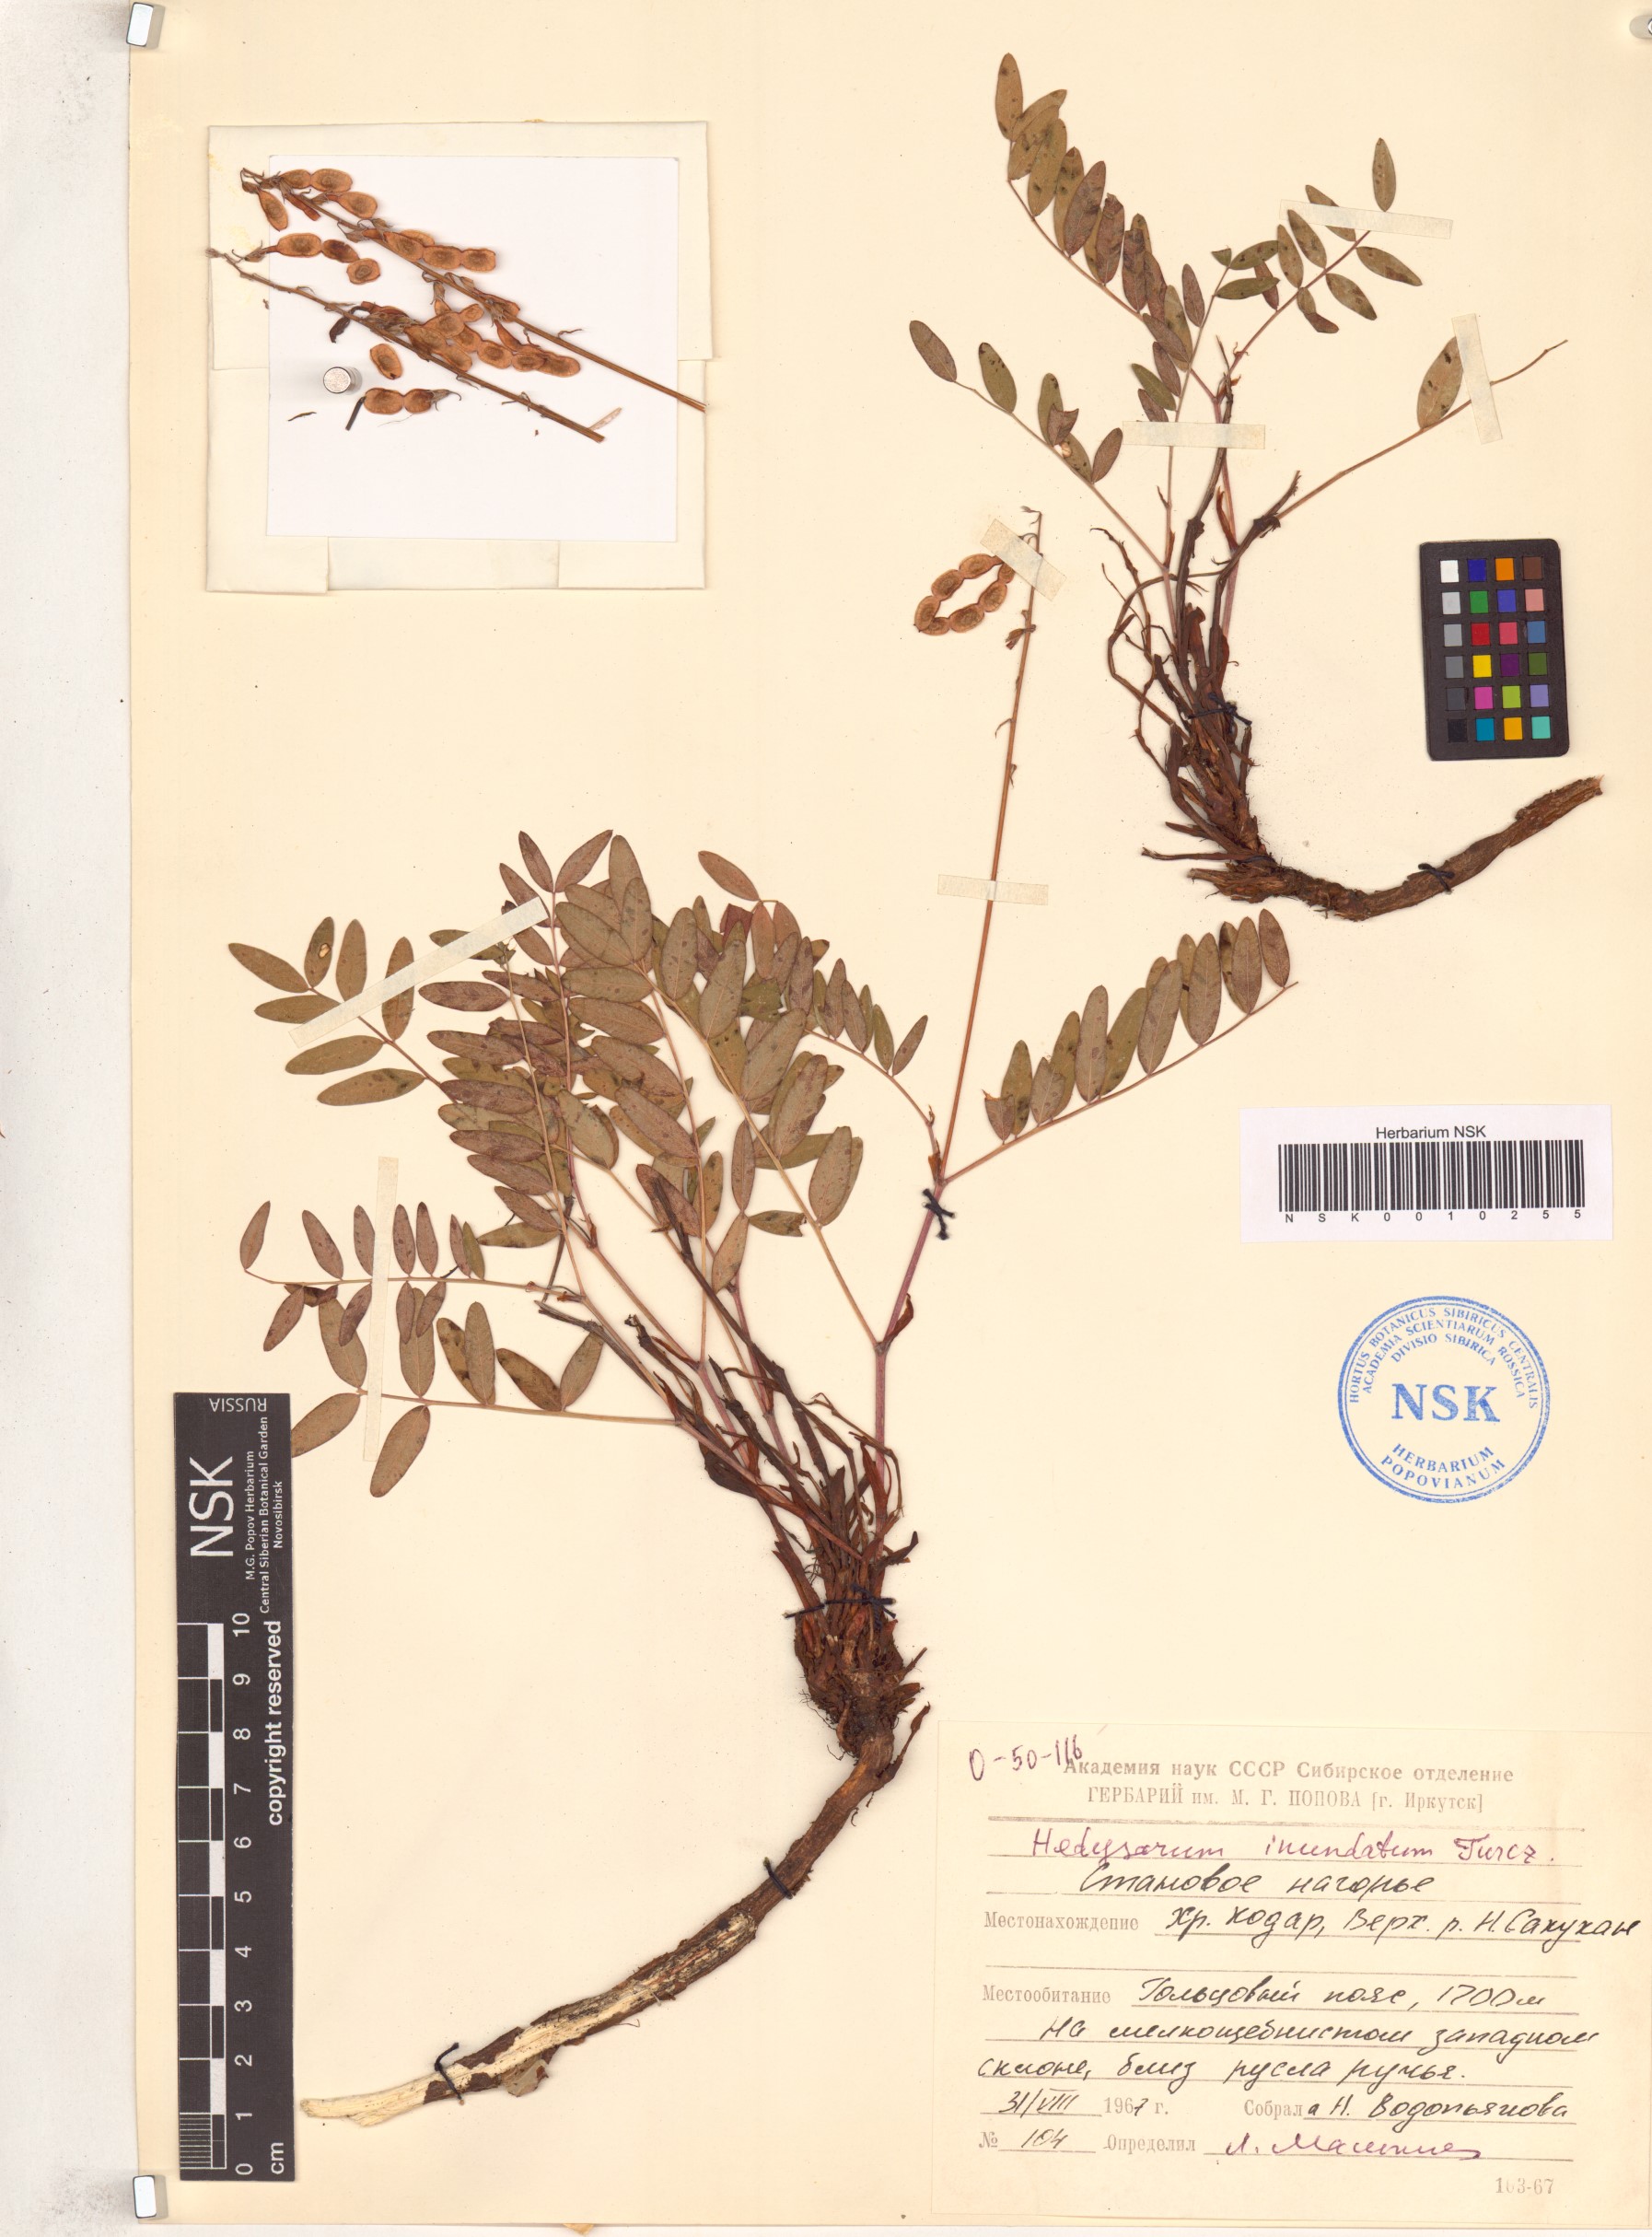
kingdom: Plantae
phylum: Tracheophyta
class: Magnoliopsida
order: Fabales
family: Fabaceae
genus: Hedysarum
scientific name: Hedysarum inundatum
